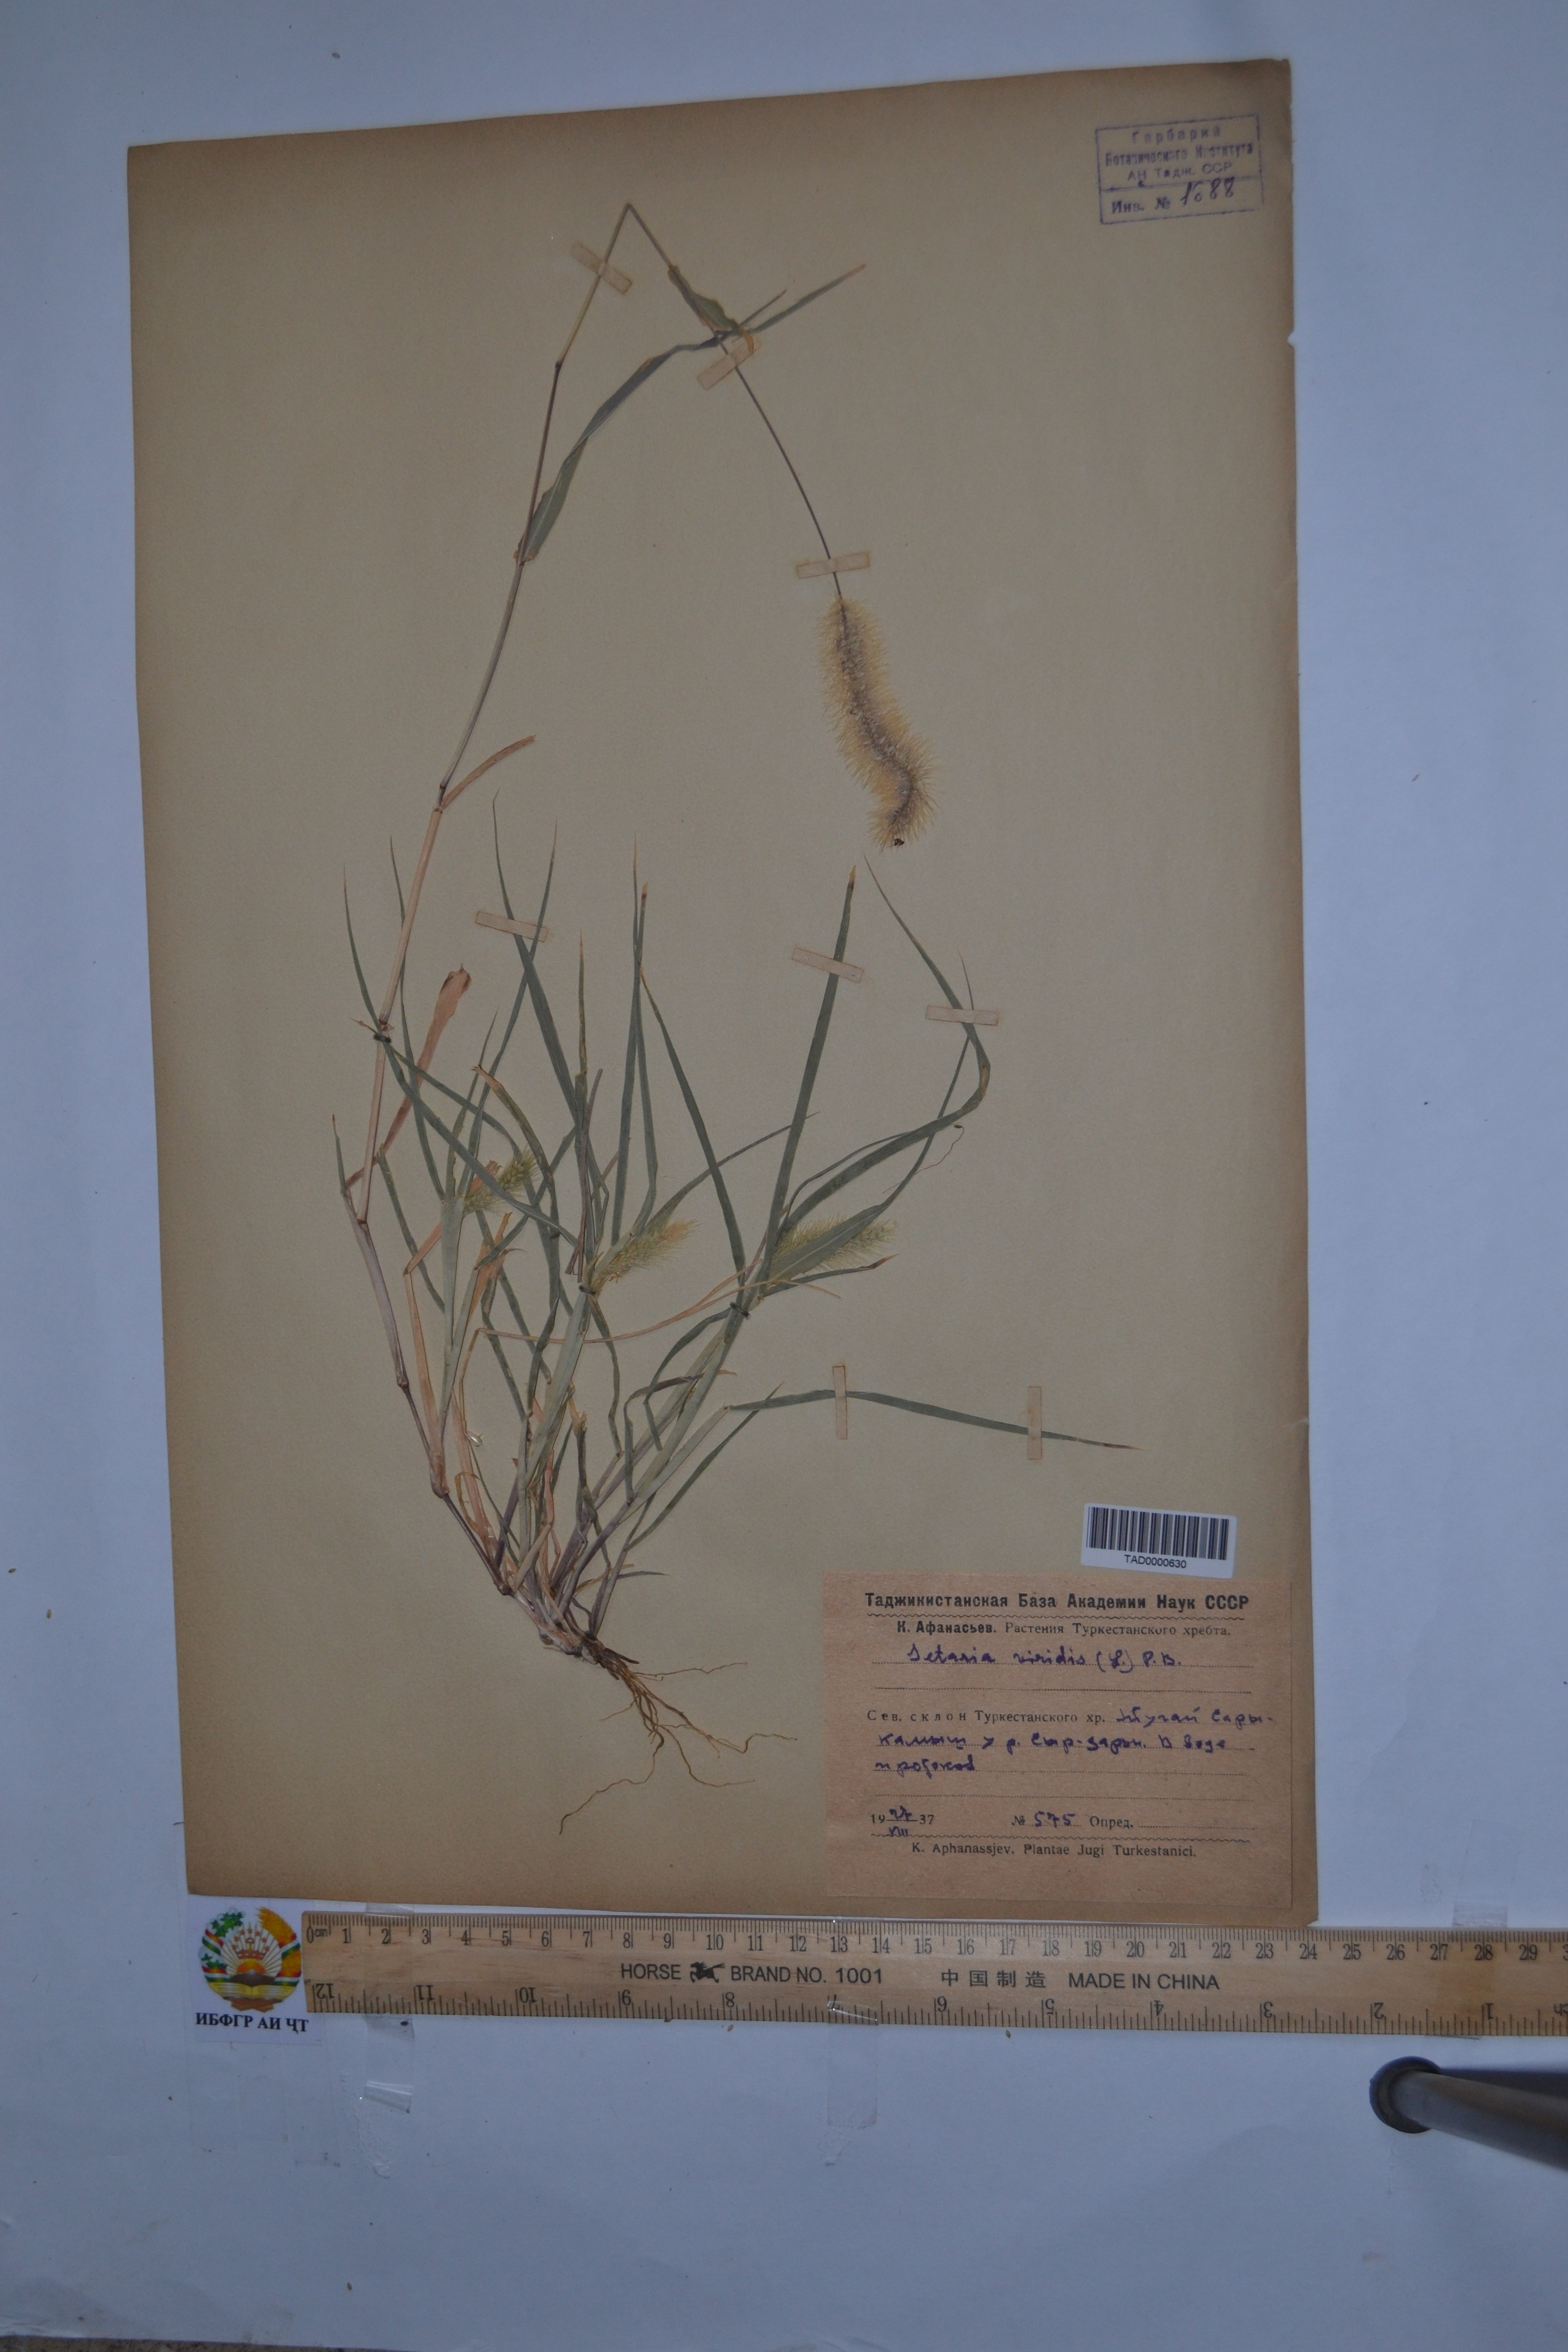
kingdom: Plantae
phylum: Tracheophyta
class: Liliopsida
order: Poales
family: Poaceae
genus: Setaria
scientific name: Setaria viridis
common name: Green bristlegrass
